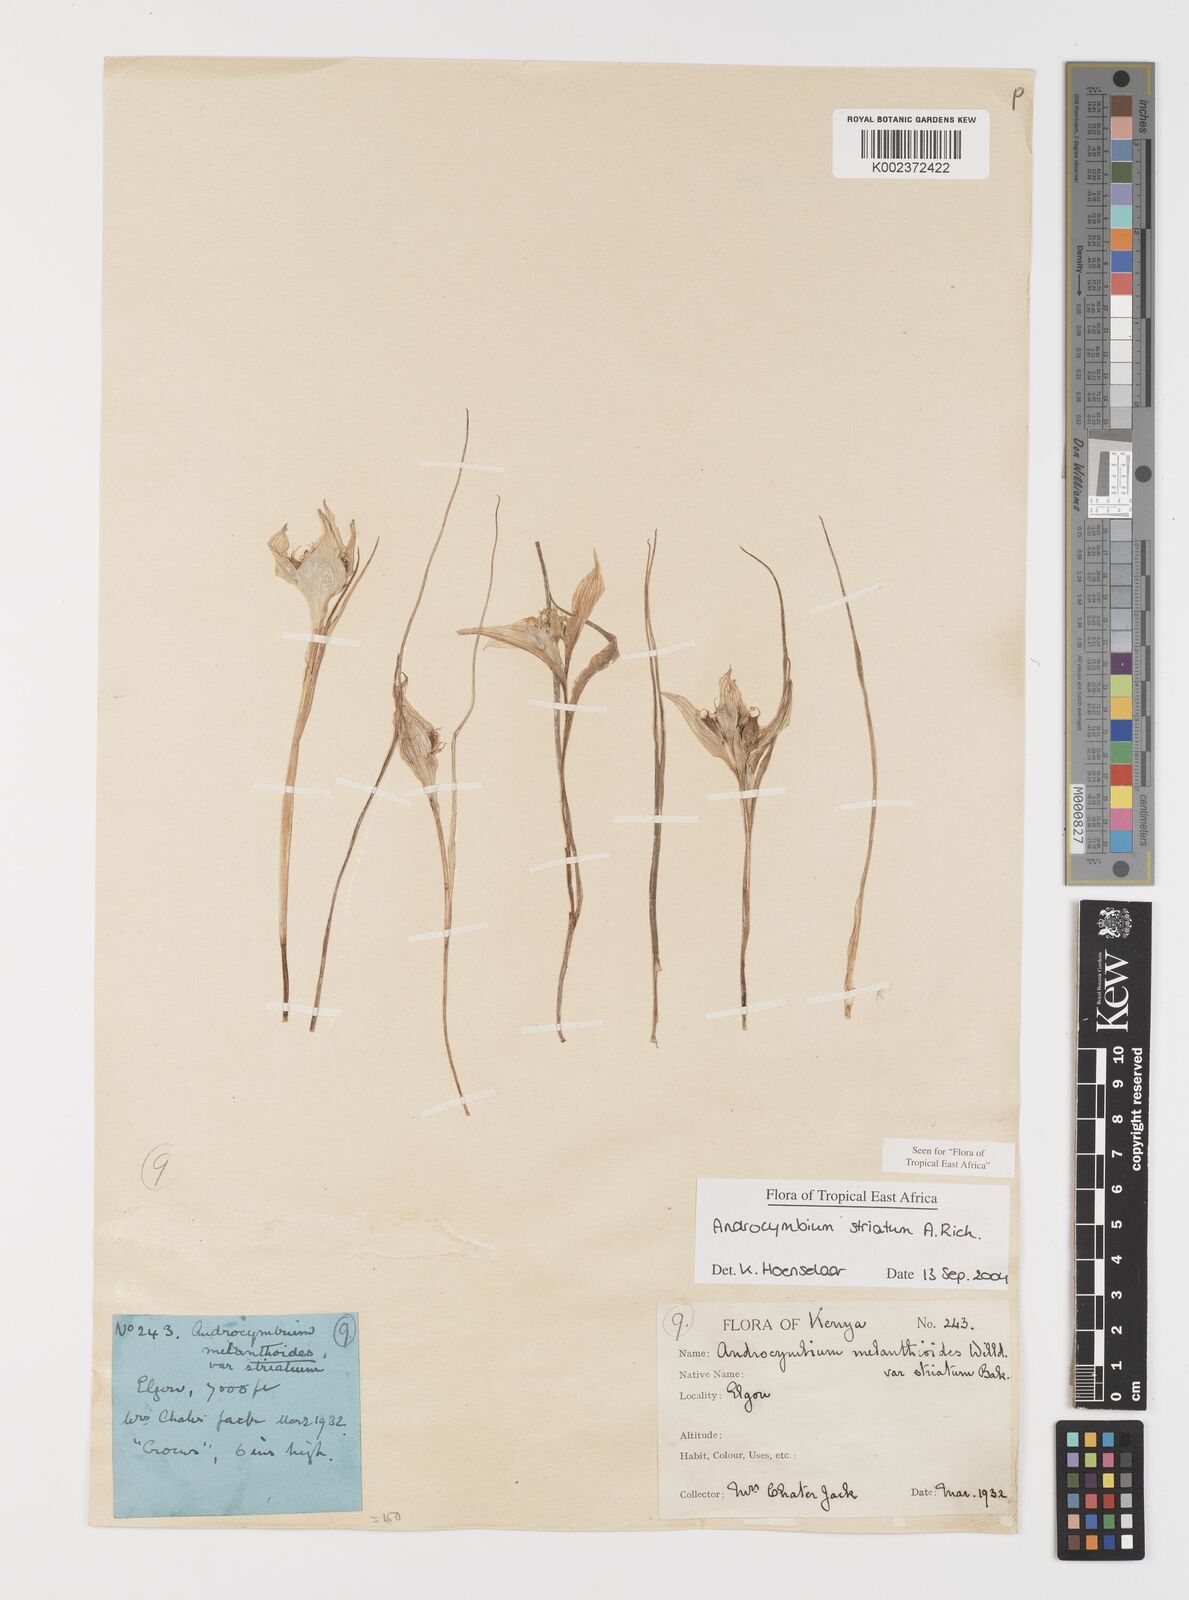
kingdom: Plantae
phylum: Tracheophyta
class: Liliopsida
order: Liliales
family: Colchicaceae
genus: Colchicum
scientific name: Colchicum striatum
